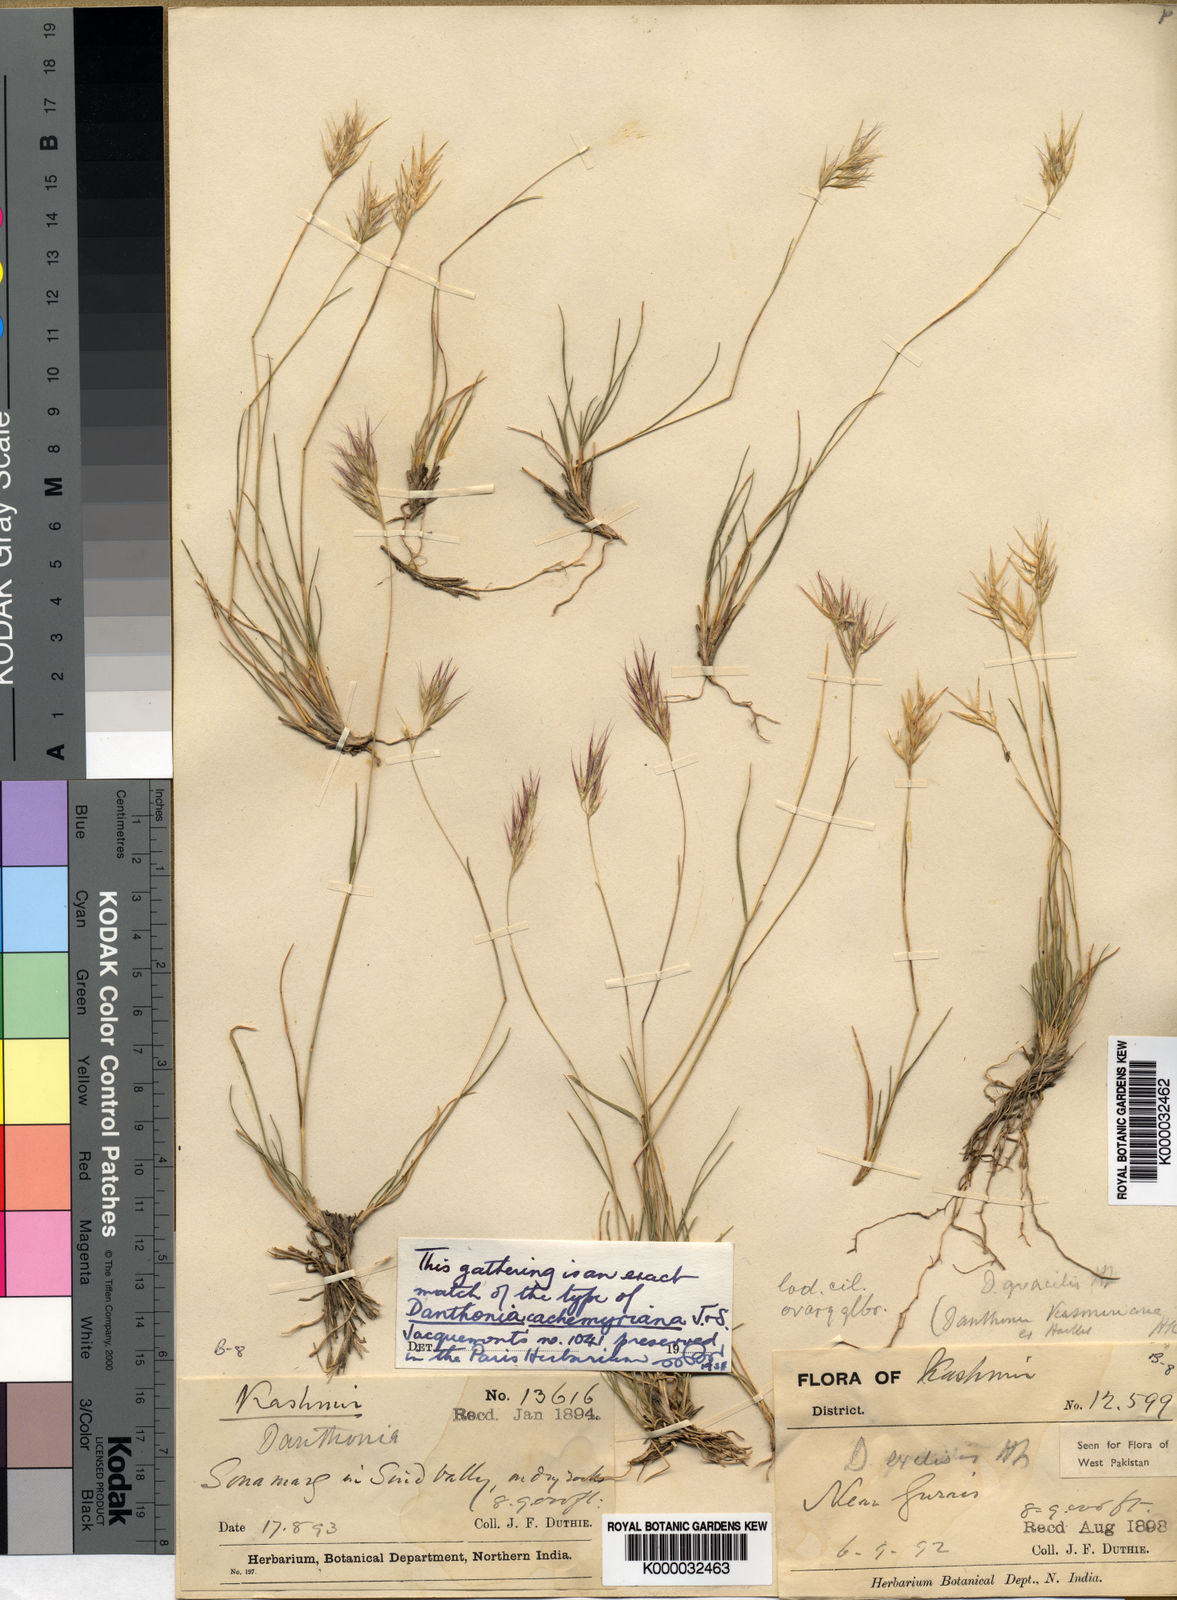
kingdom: Plantae
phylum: Tracheophyta
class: Liliopsida
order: Poales
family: Poaceae
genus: Rytidosperma
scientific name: Rytidosperma
